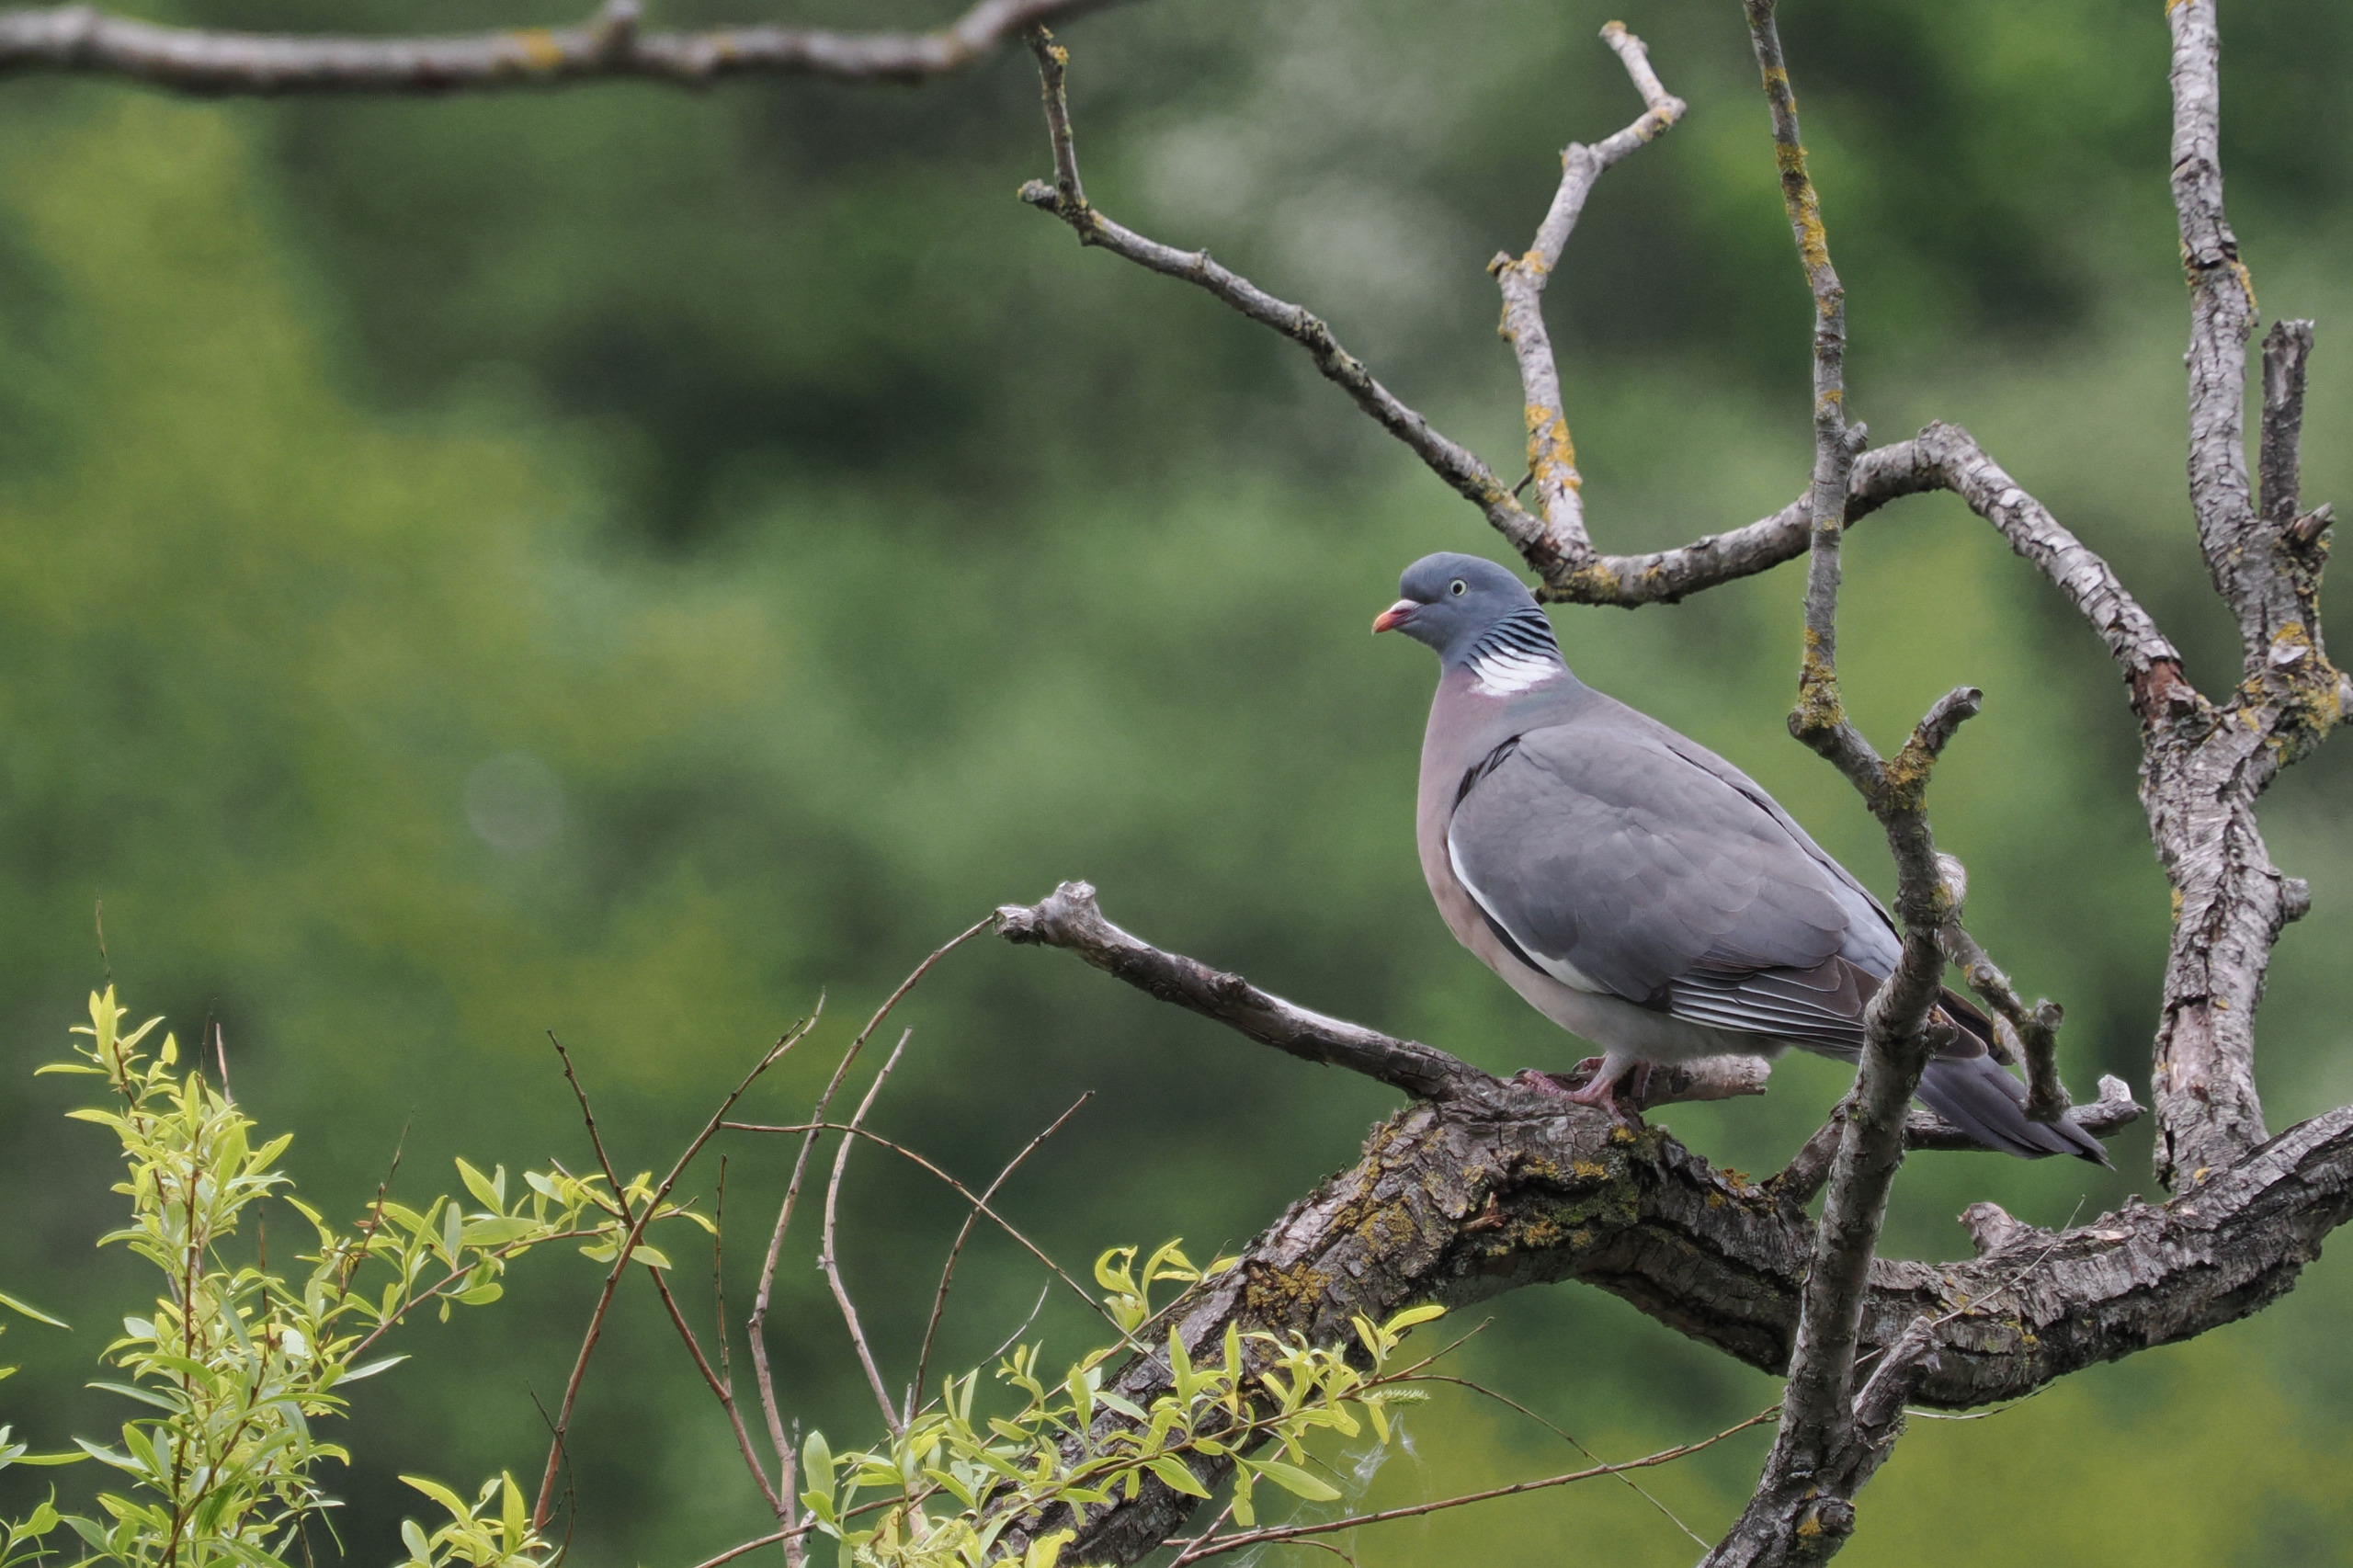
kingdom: Animalia
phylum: Chordata
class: Aves
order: Columbiformes
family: Columbidae
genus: Columba
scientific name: Columba palumbus
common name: Ringdue
